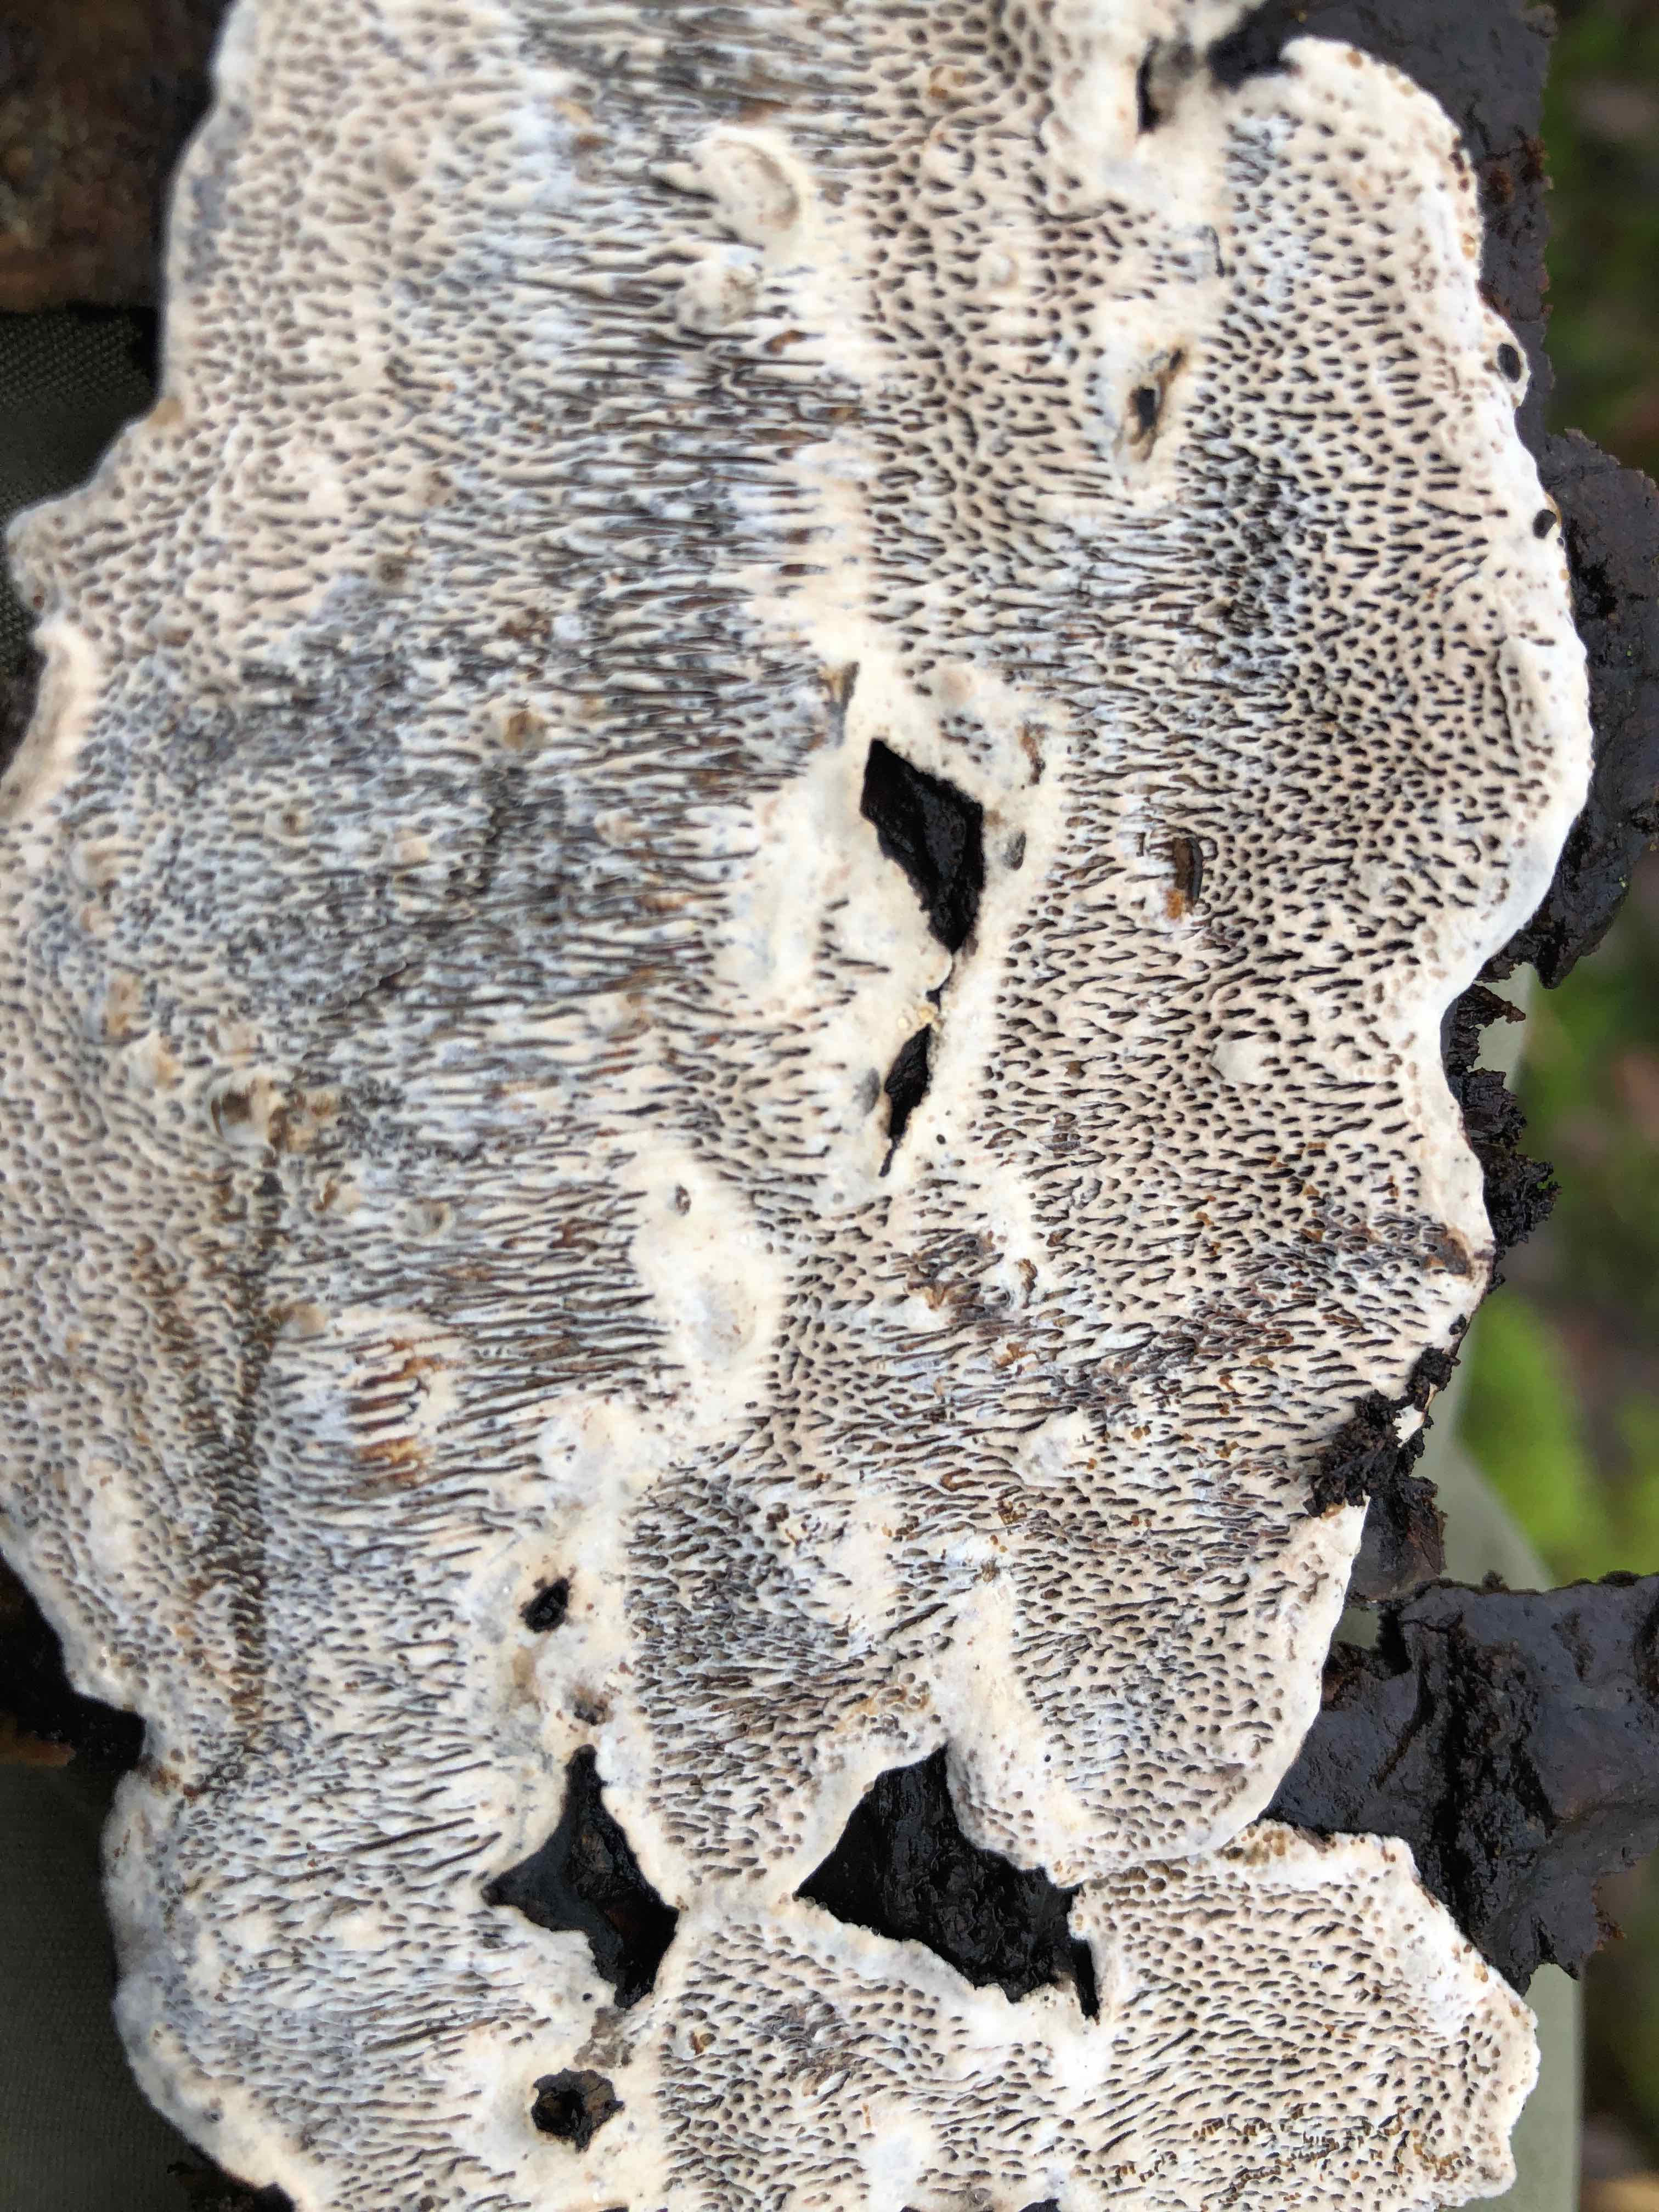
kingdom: Fungi
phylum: Basidiomycota
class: Agaricomycetes
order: Polyporales
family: Polyporaceae
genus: Podofomes
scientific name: Podofomes mollis
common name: blød begporesvamp
